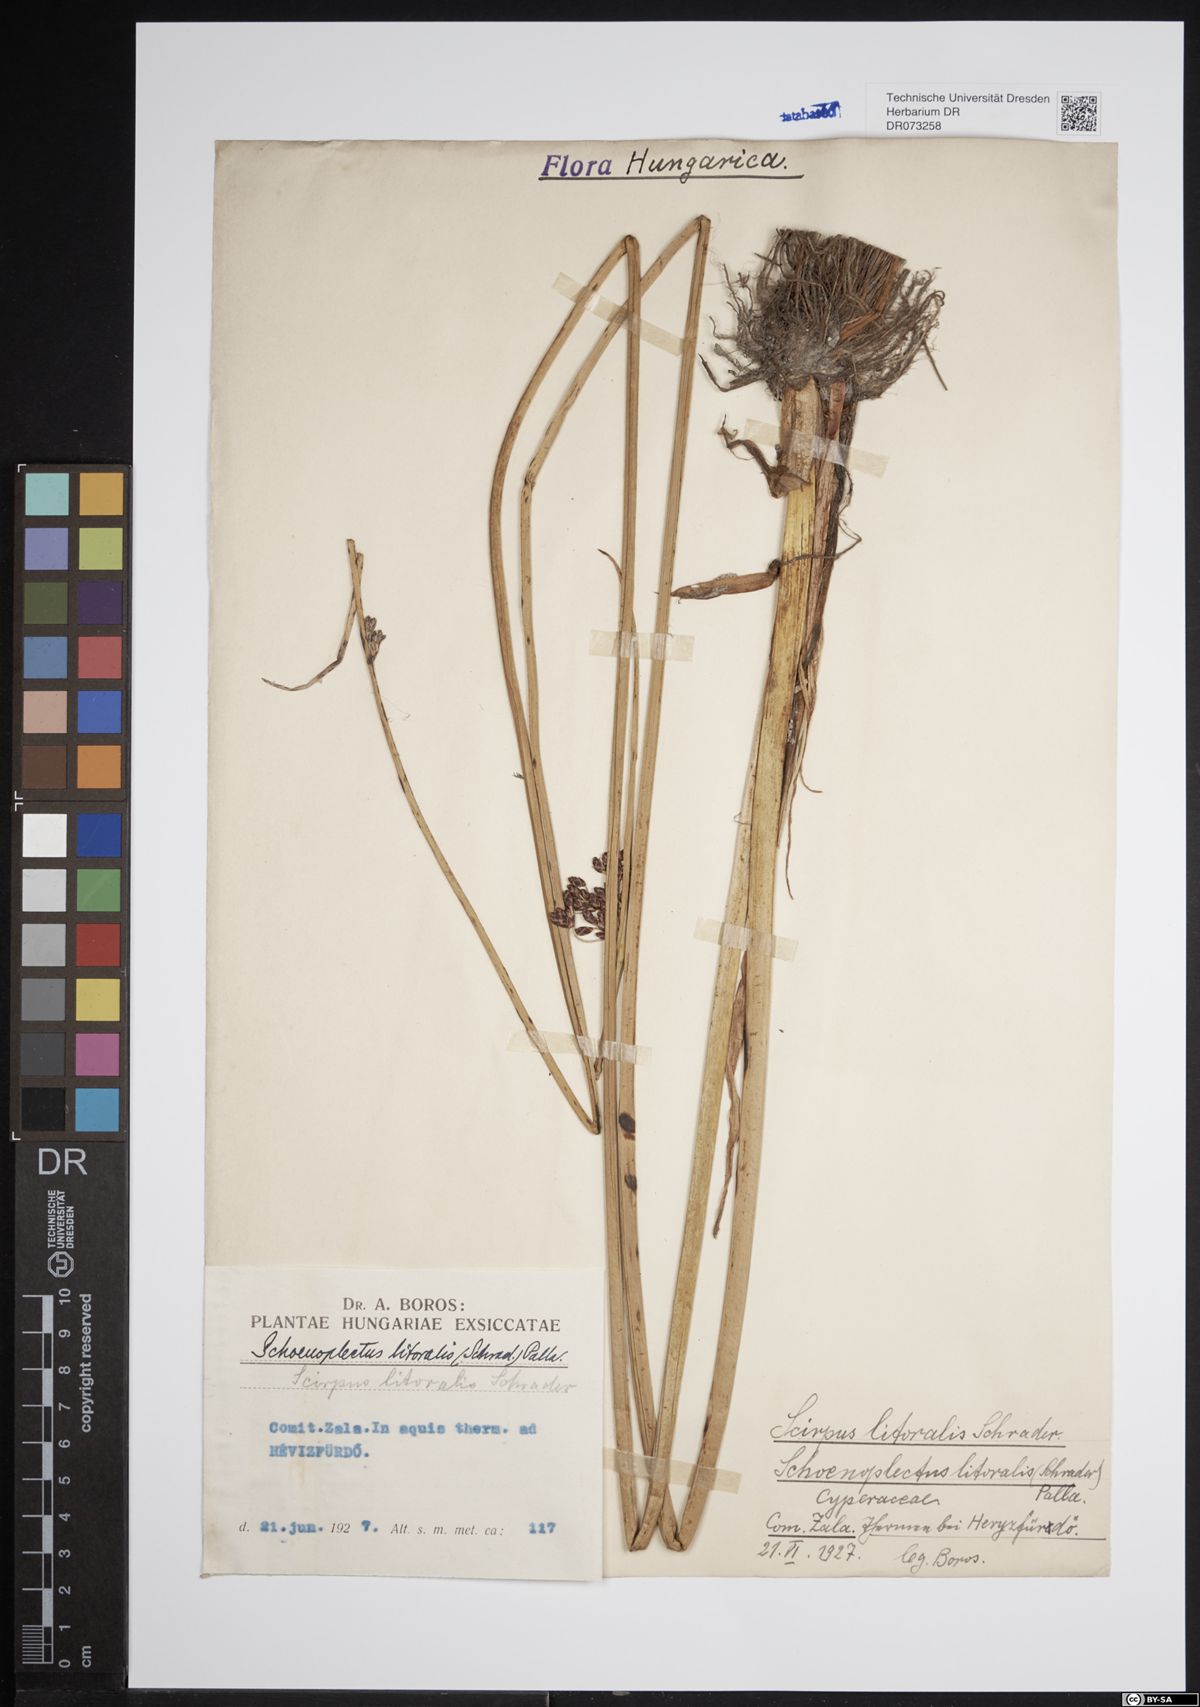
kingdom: Plantae
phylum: Tracheophyta
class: Liliopsida
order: Poales
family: Cyperaceae
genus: Schoenoplectus
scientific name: Schoenoplectus litoralis
